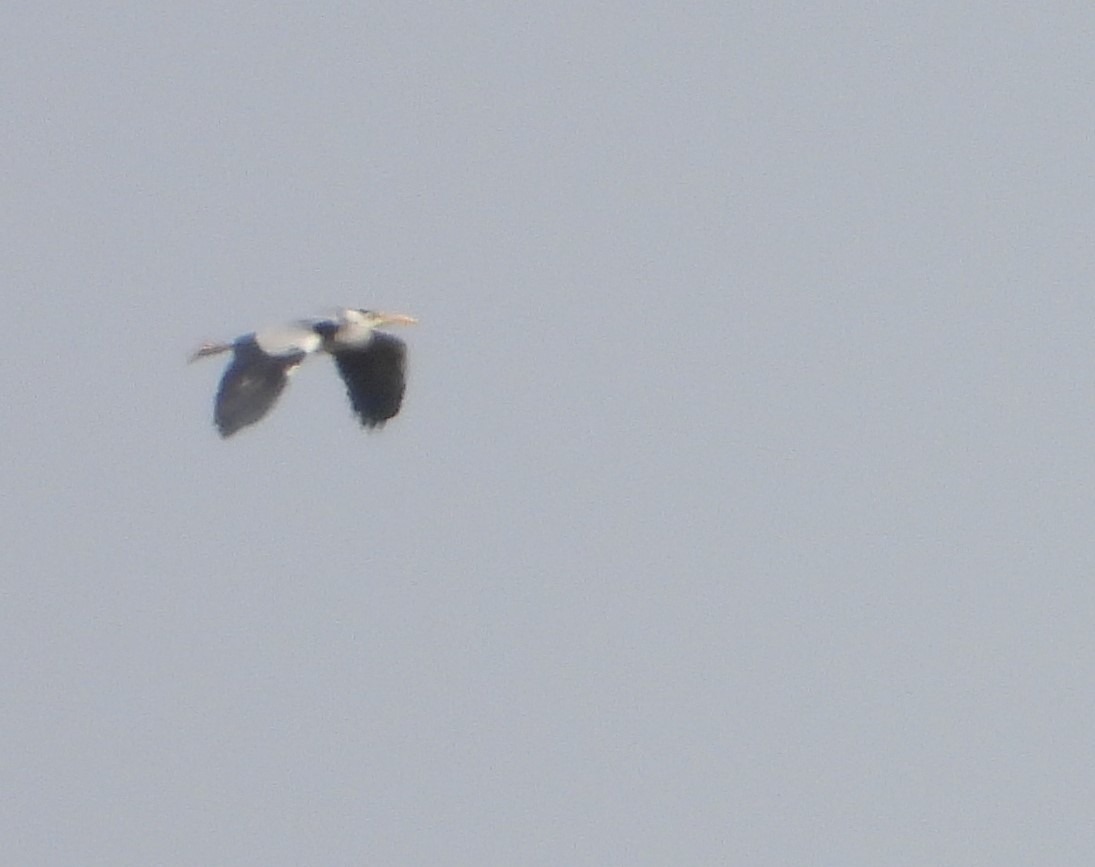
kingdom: Animalia
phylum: Chordata
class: Aves
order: Pelecaniformes
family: Ardeidae
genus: Ardea
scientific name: Ardea cinerea
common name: Fiskehejre
